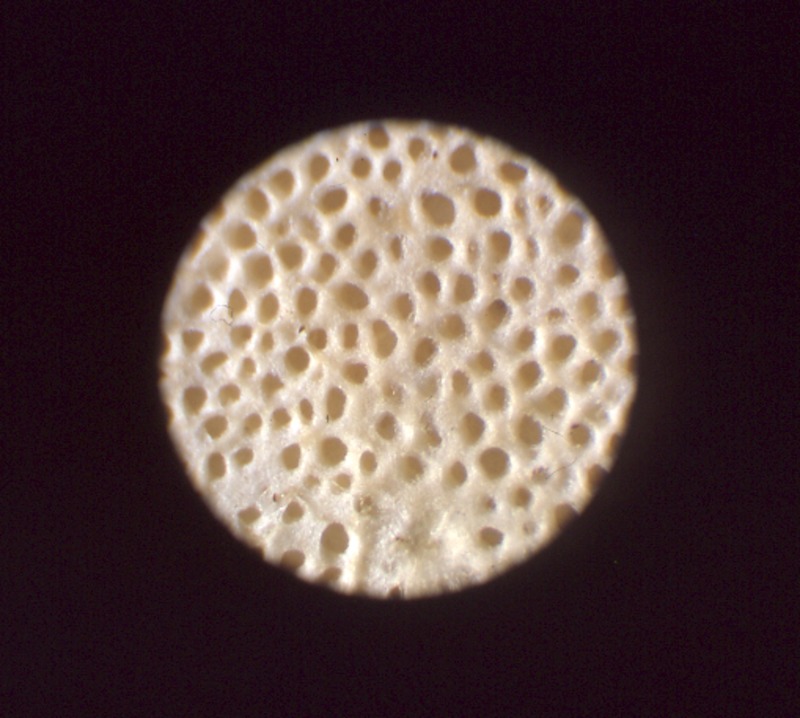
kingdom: Fungi
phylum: Basidiomycota
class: Agaricomycetes
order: Polyporales
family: Fomitopsidaceae
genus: Fomitopsis
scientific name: Fomitopsis betulina
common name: Birch polypore
